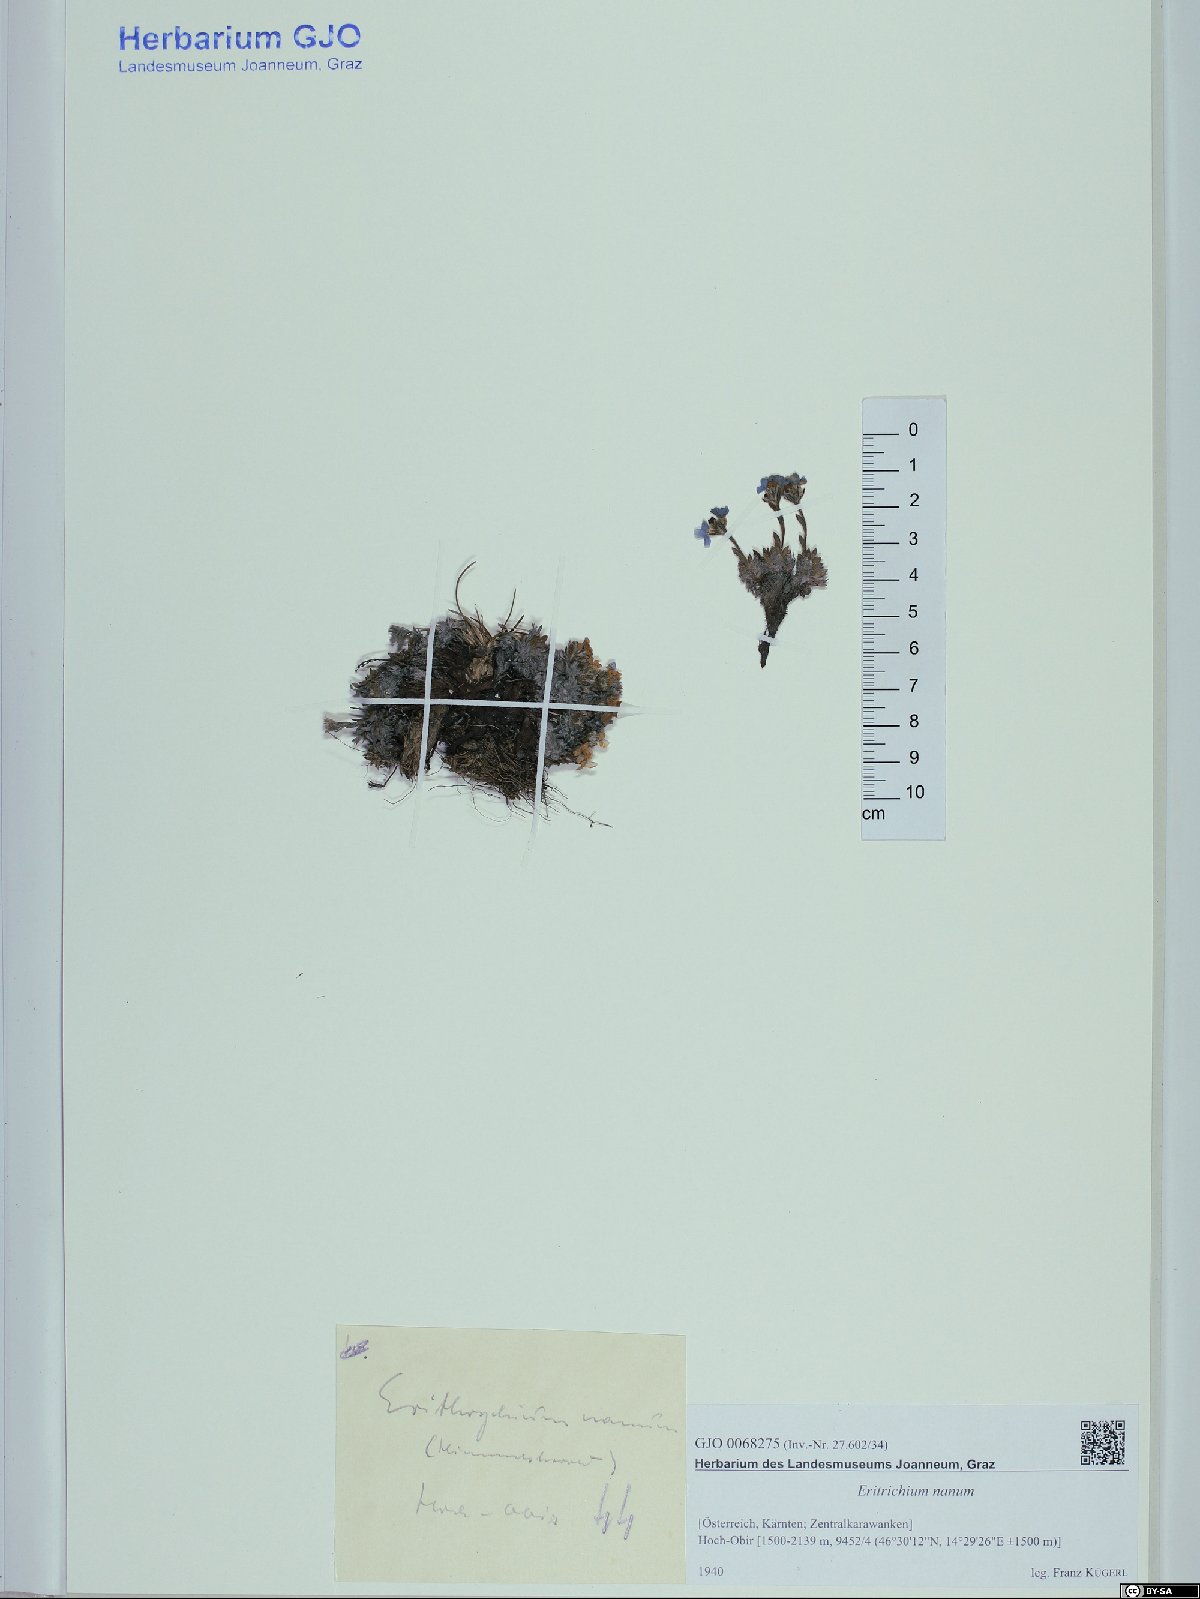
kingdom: Plantae
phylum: Tracheophyta
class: Magnoliopsida
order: Boraginales
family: Boraginaceae
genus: Eritrichium
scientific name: Eritrichium nanum
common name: King-of-the-alps
